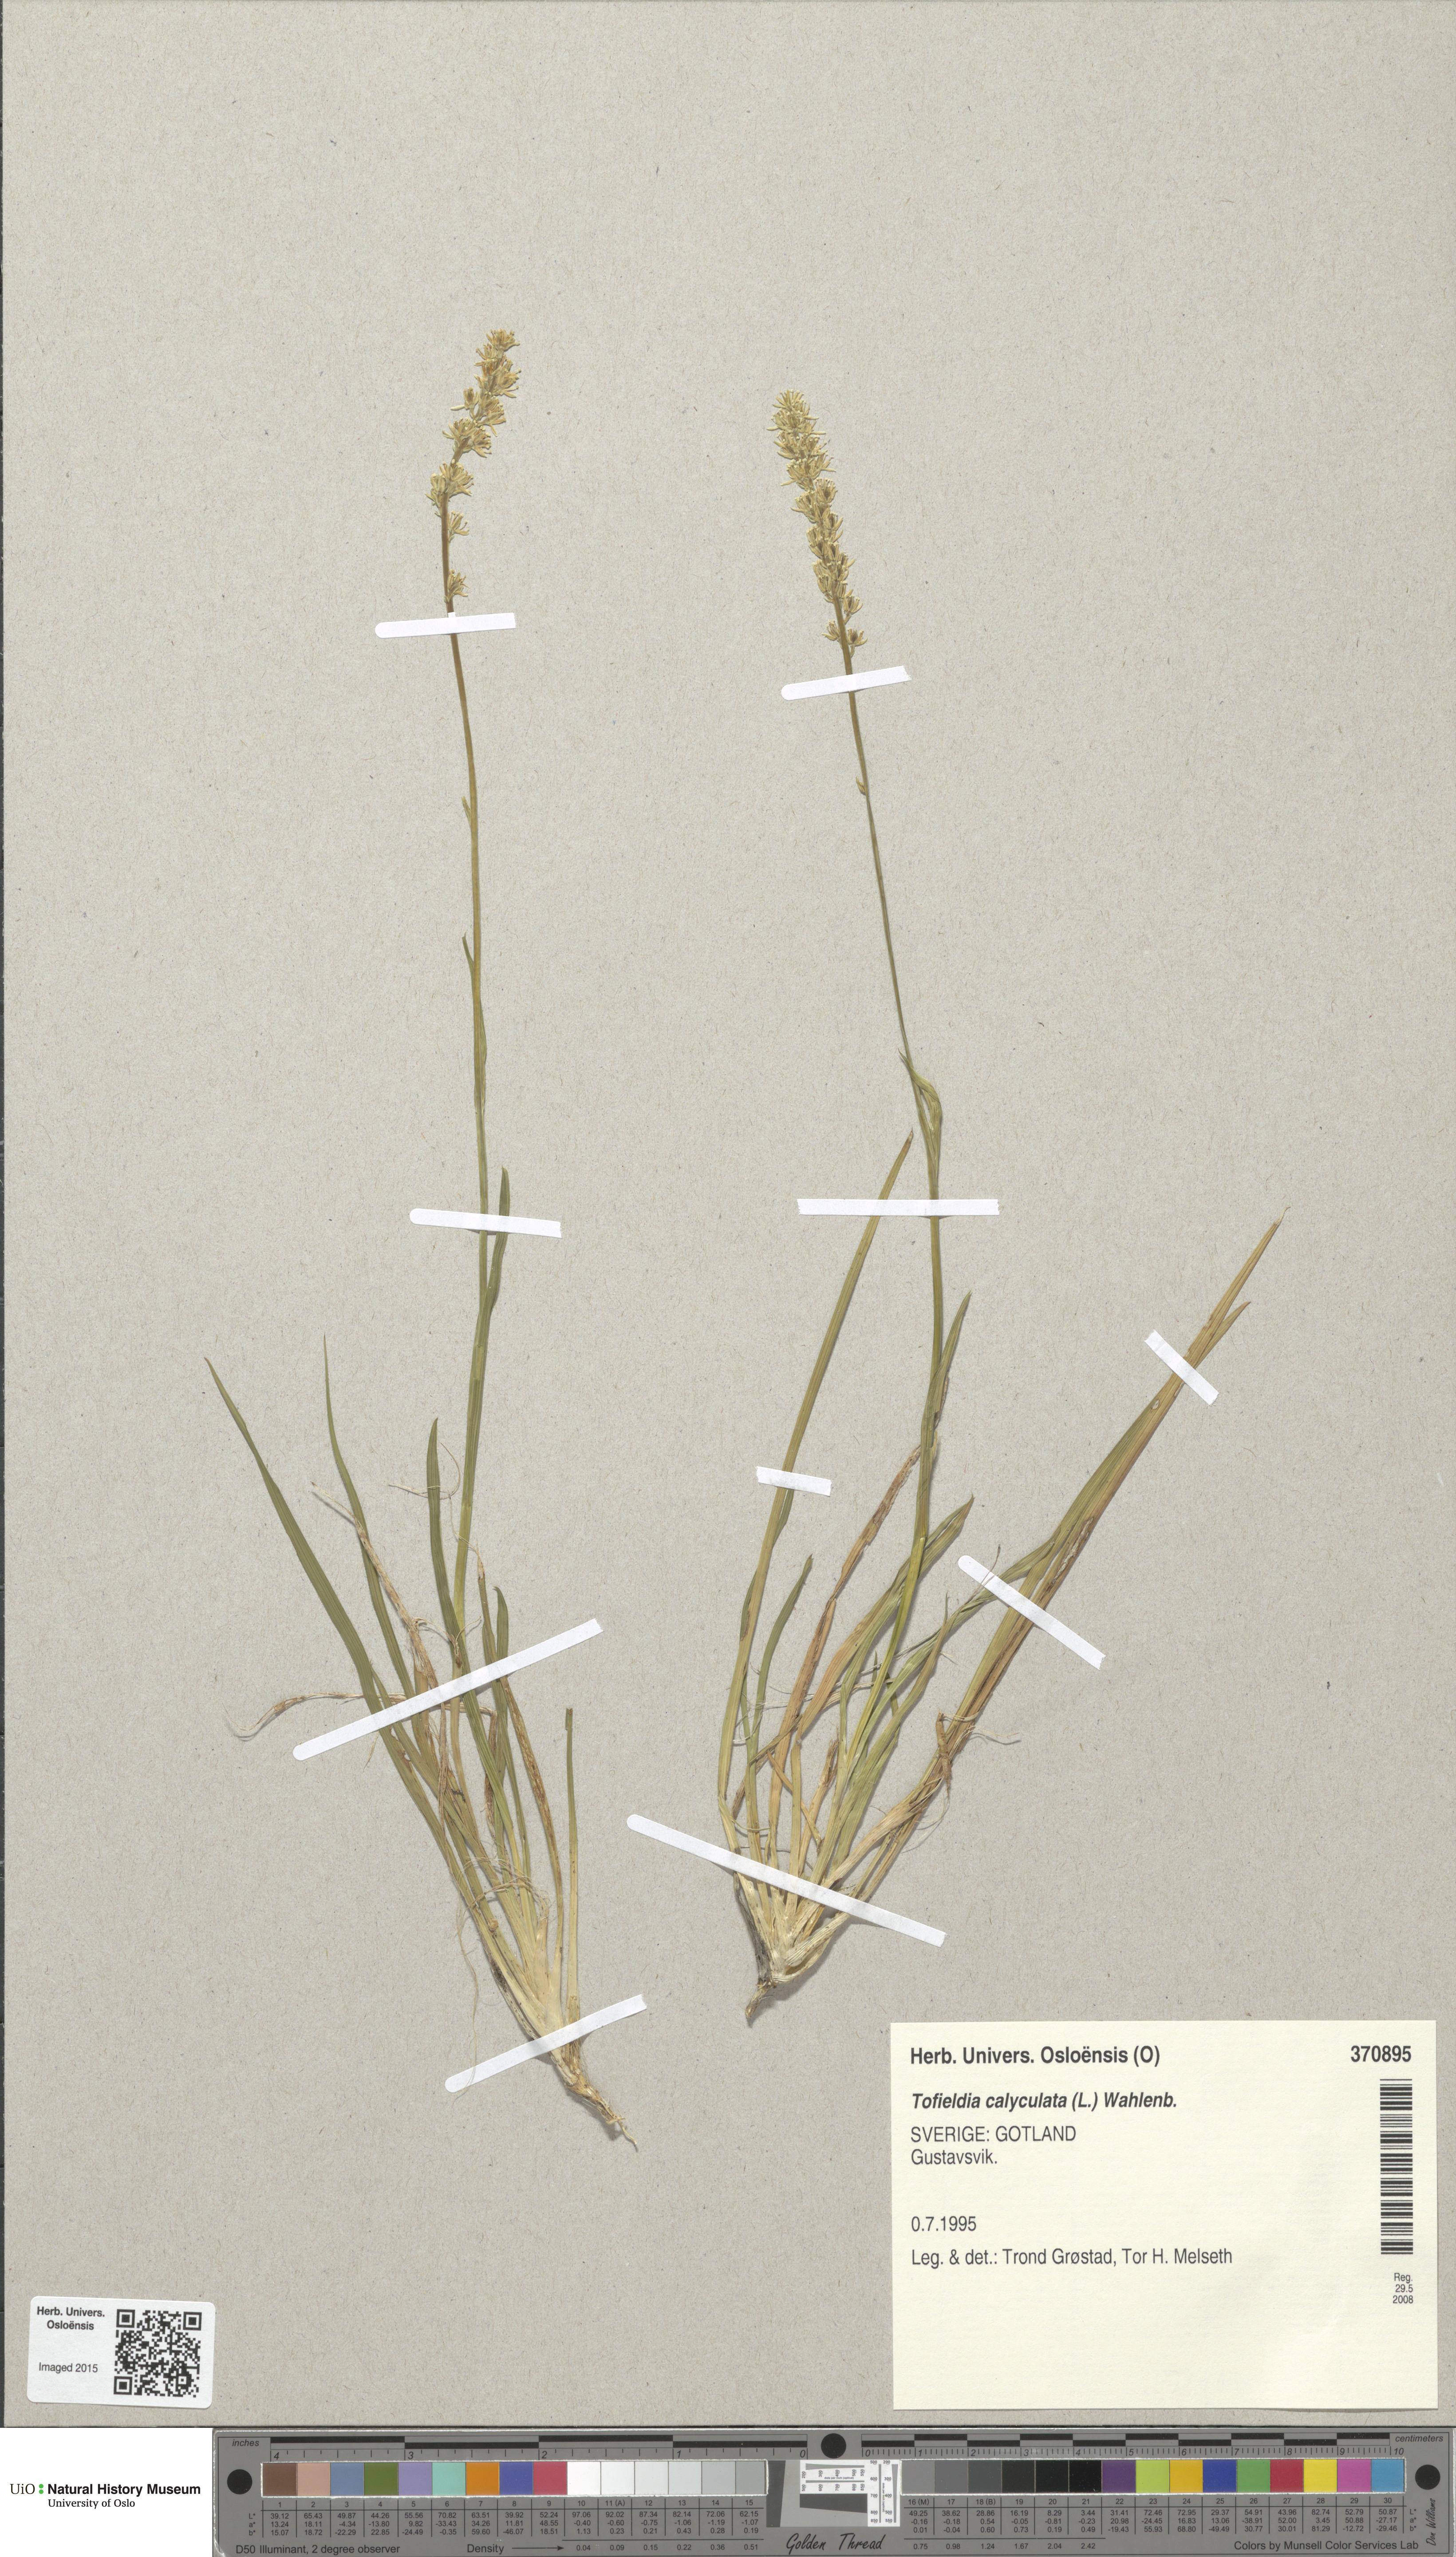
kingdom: Plantae
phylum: Tracheophyta
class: Liliopsida
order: Alismatales
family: Tofieldiaceae
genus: Tofieldia
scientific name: Tofieldia calyculata
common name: German-asphodel
